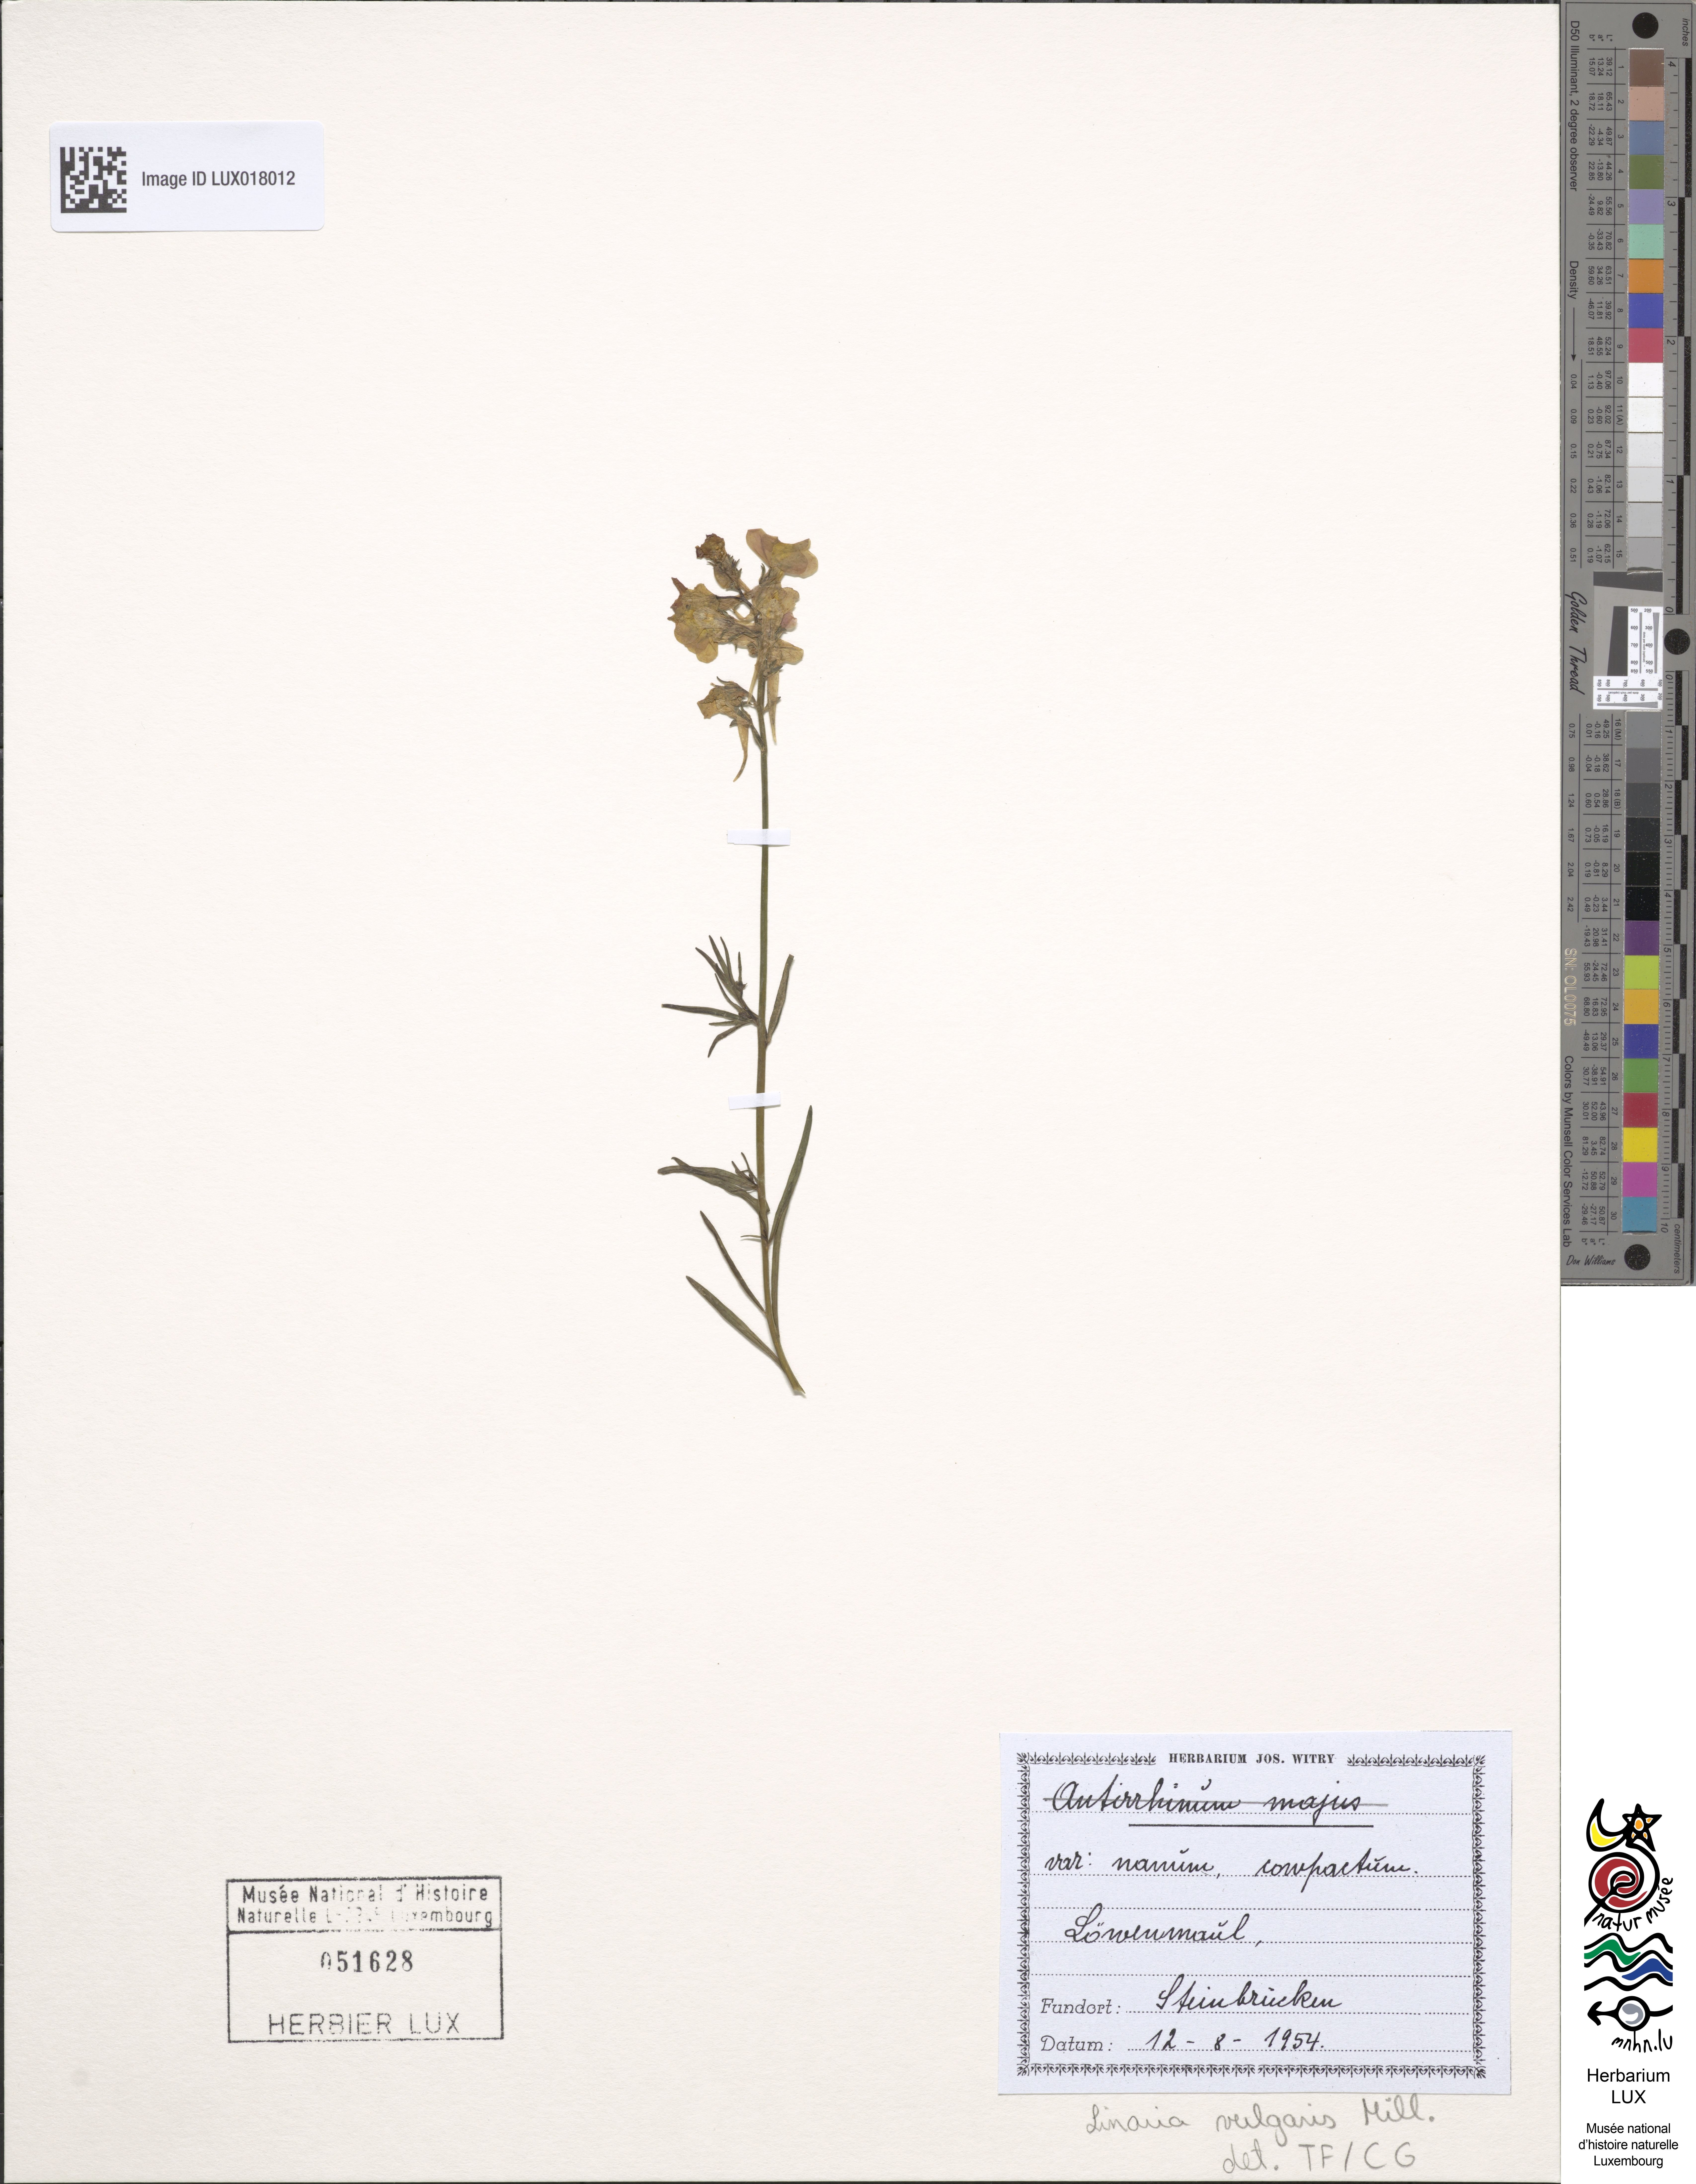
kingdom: Plantae
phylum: Tracheophyta
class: Magnoliopsida
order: Lamiales
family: Plantaginaceae
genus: Linaria
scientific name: Linaria vulgaris
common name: Butter and eggs
